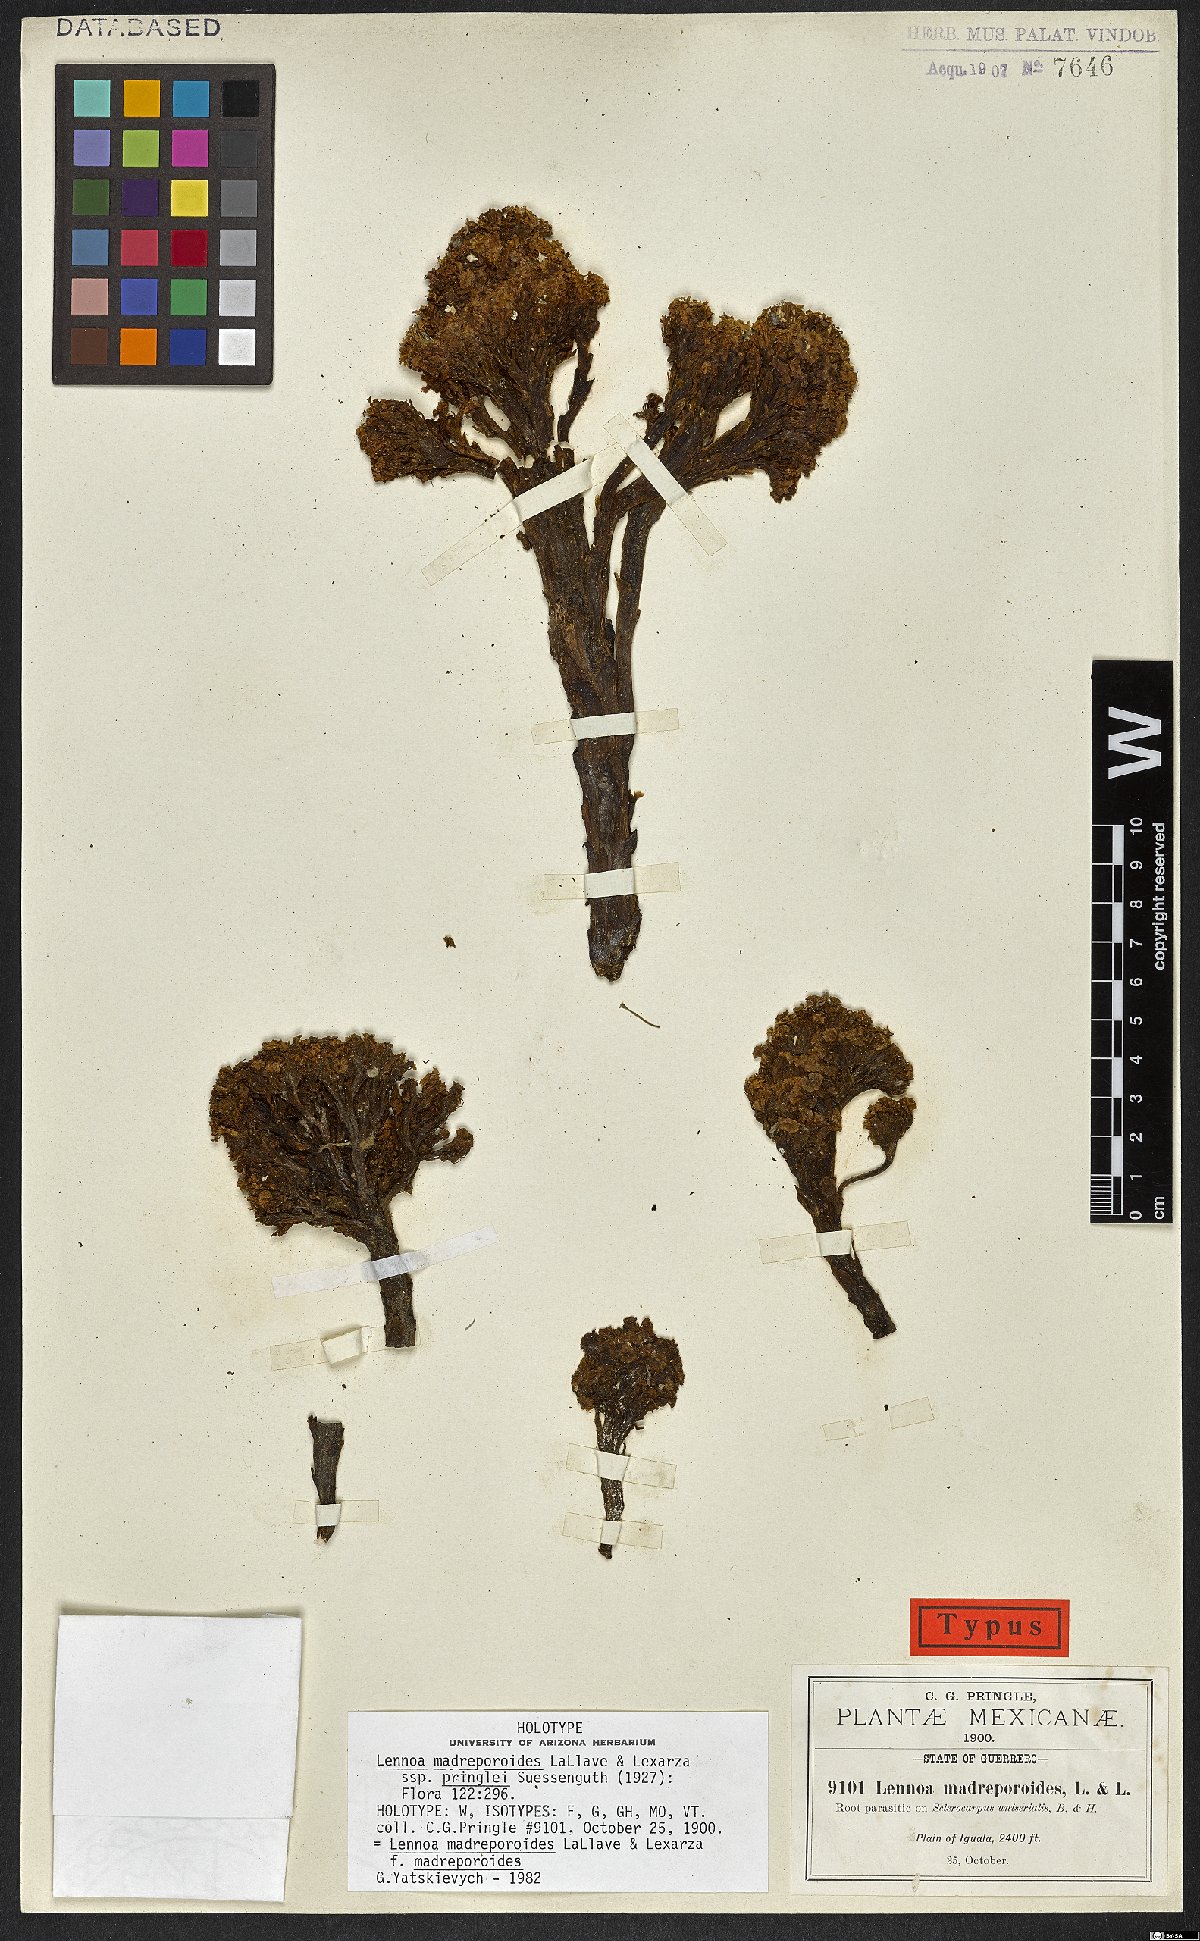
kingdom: Plantae
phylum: Tracheophyta
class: Magnoliopsida
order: Boraginales
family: Lennoaceae
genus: Lennoa
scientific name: Lennoa madreporoides
